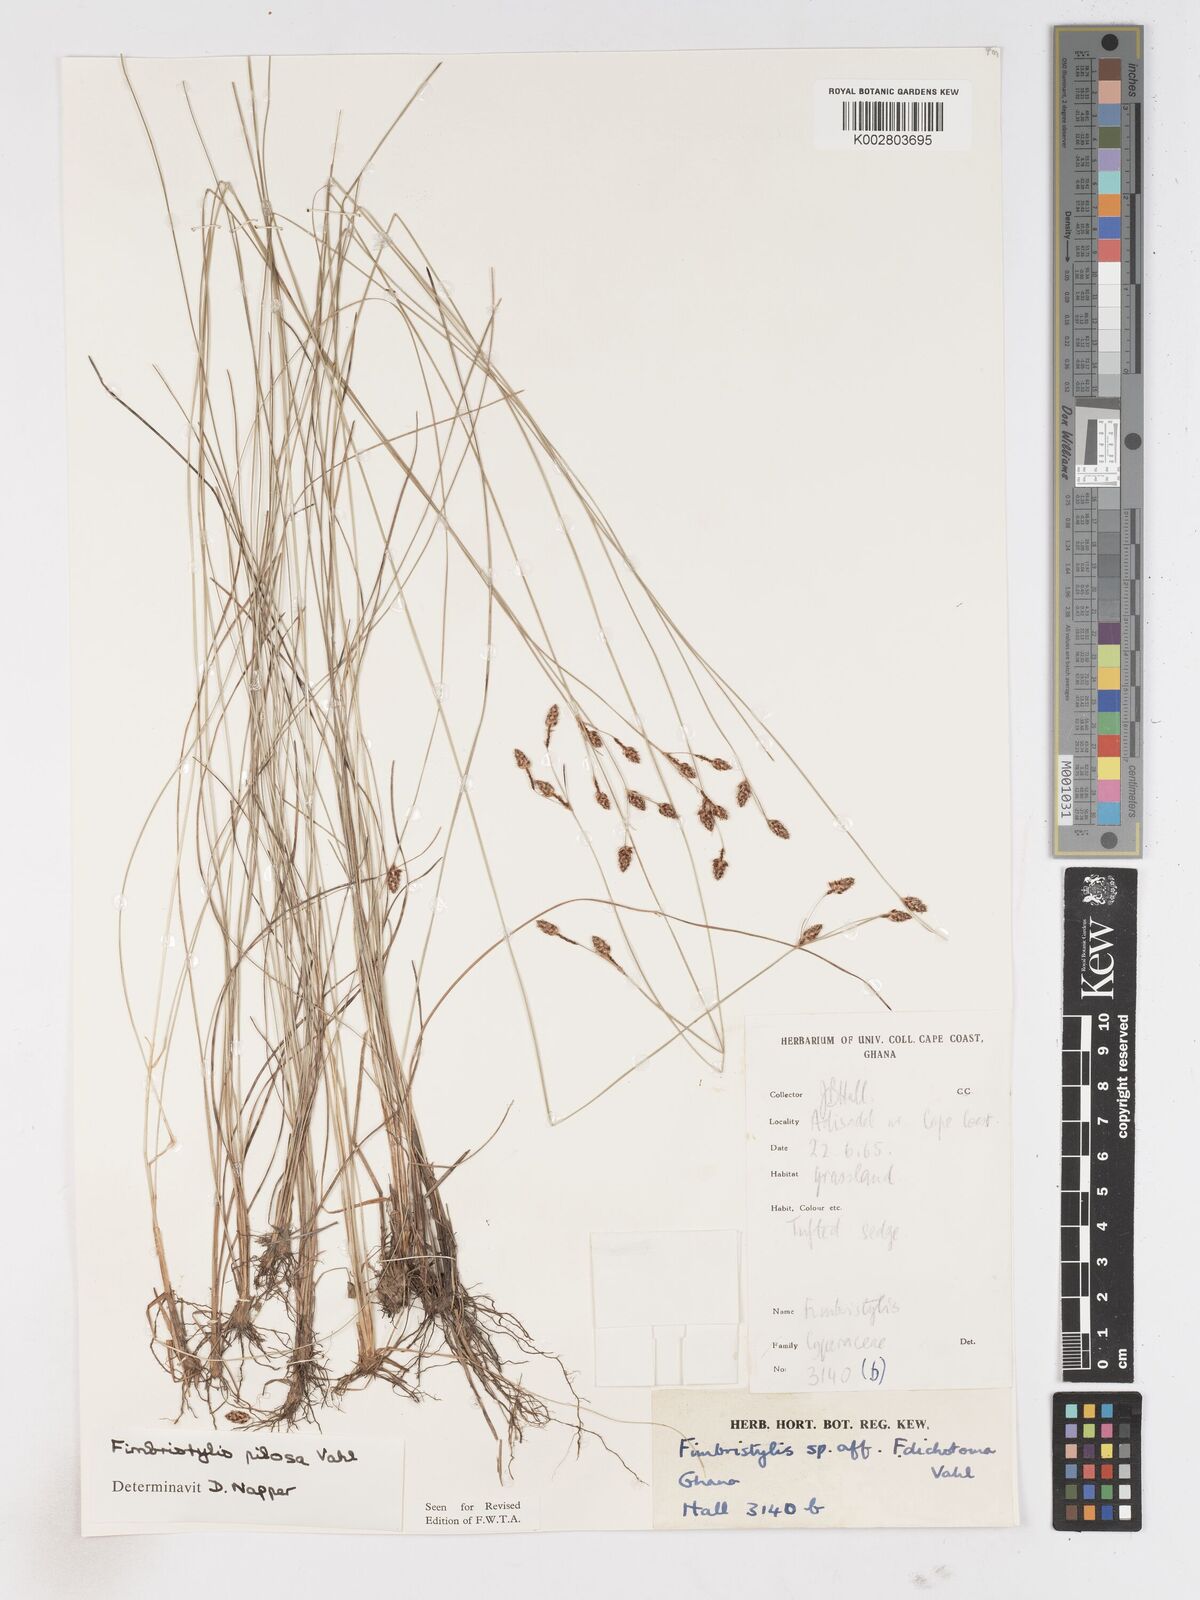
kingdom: Plantae
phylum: Tracheophyta
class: Liliopsida
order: Poales
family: Cyperaceae
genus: Fimbristylis
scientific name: Fimbristylis pilosa
